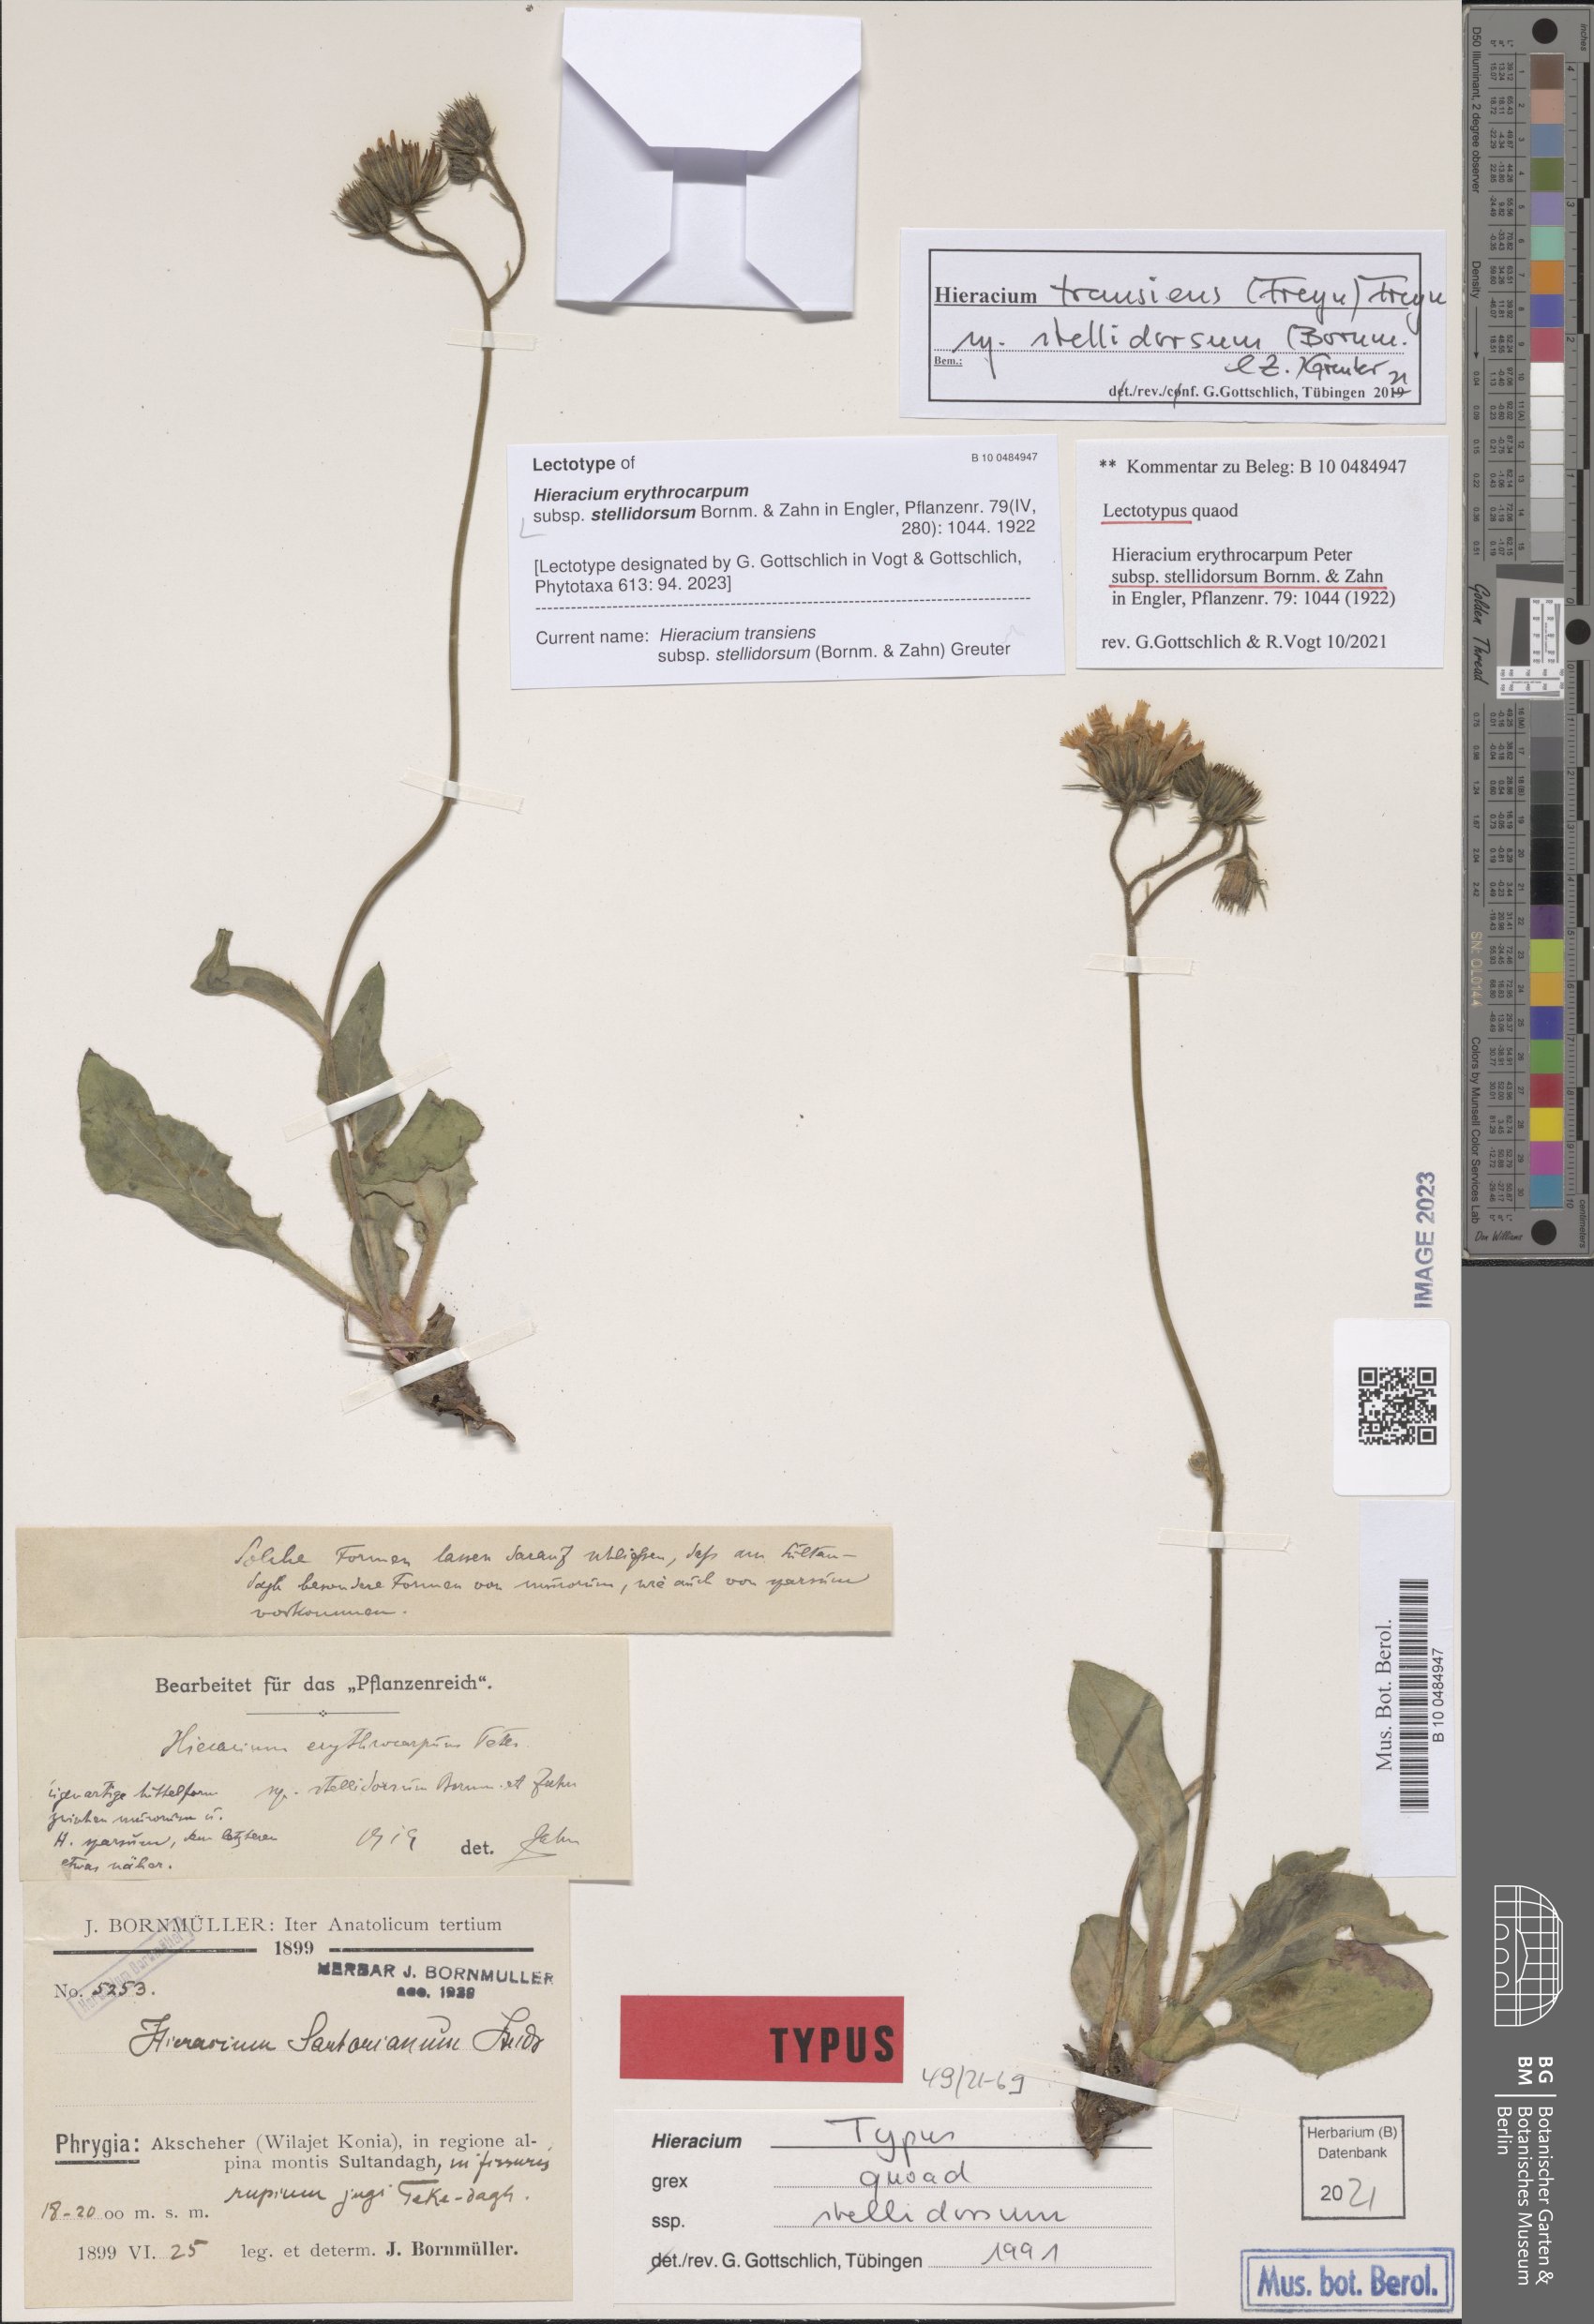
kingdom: Plantae
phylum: Tracheophyta
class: Magnoliopsida
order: Asterales
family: Asteraceae
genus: Hieracium
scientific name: Hieracium transiens
